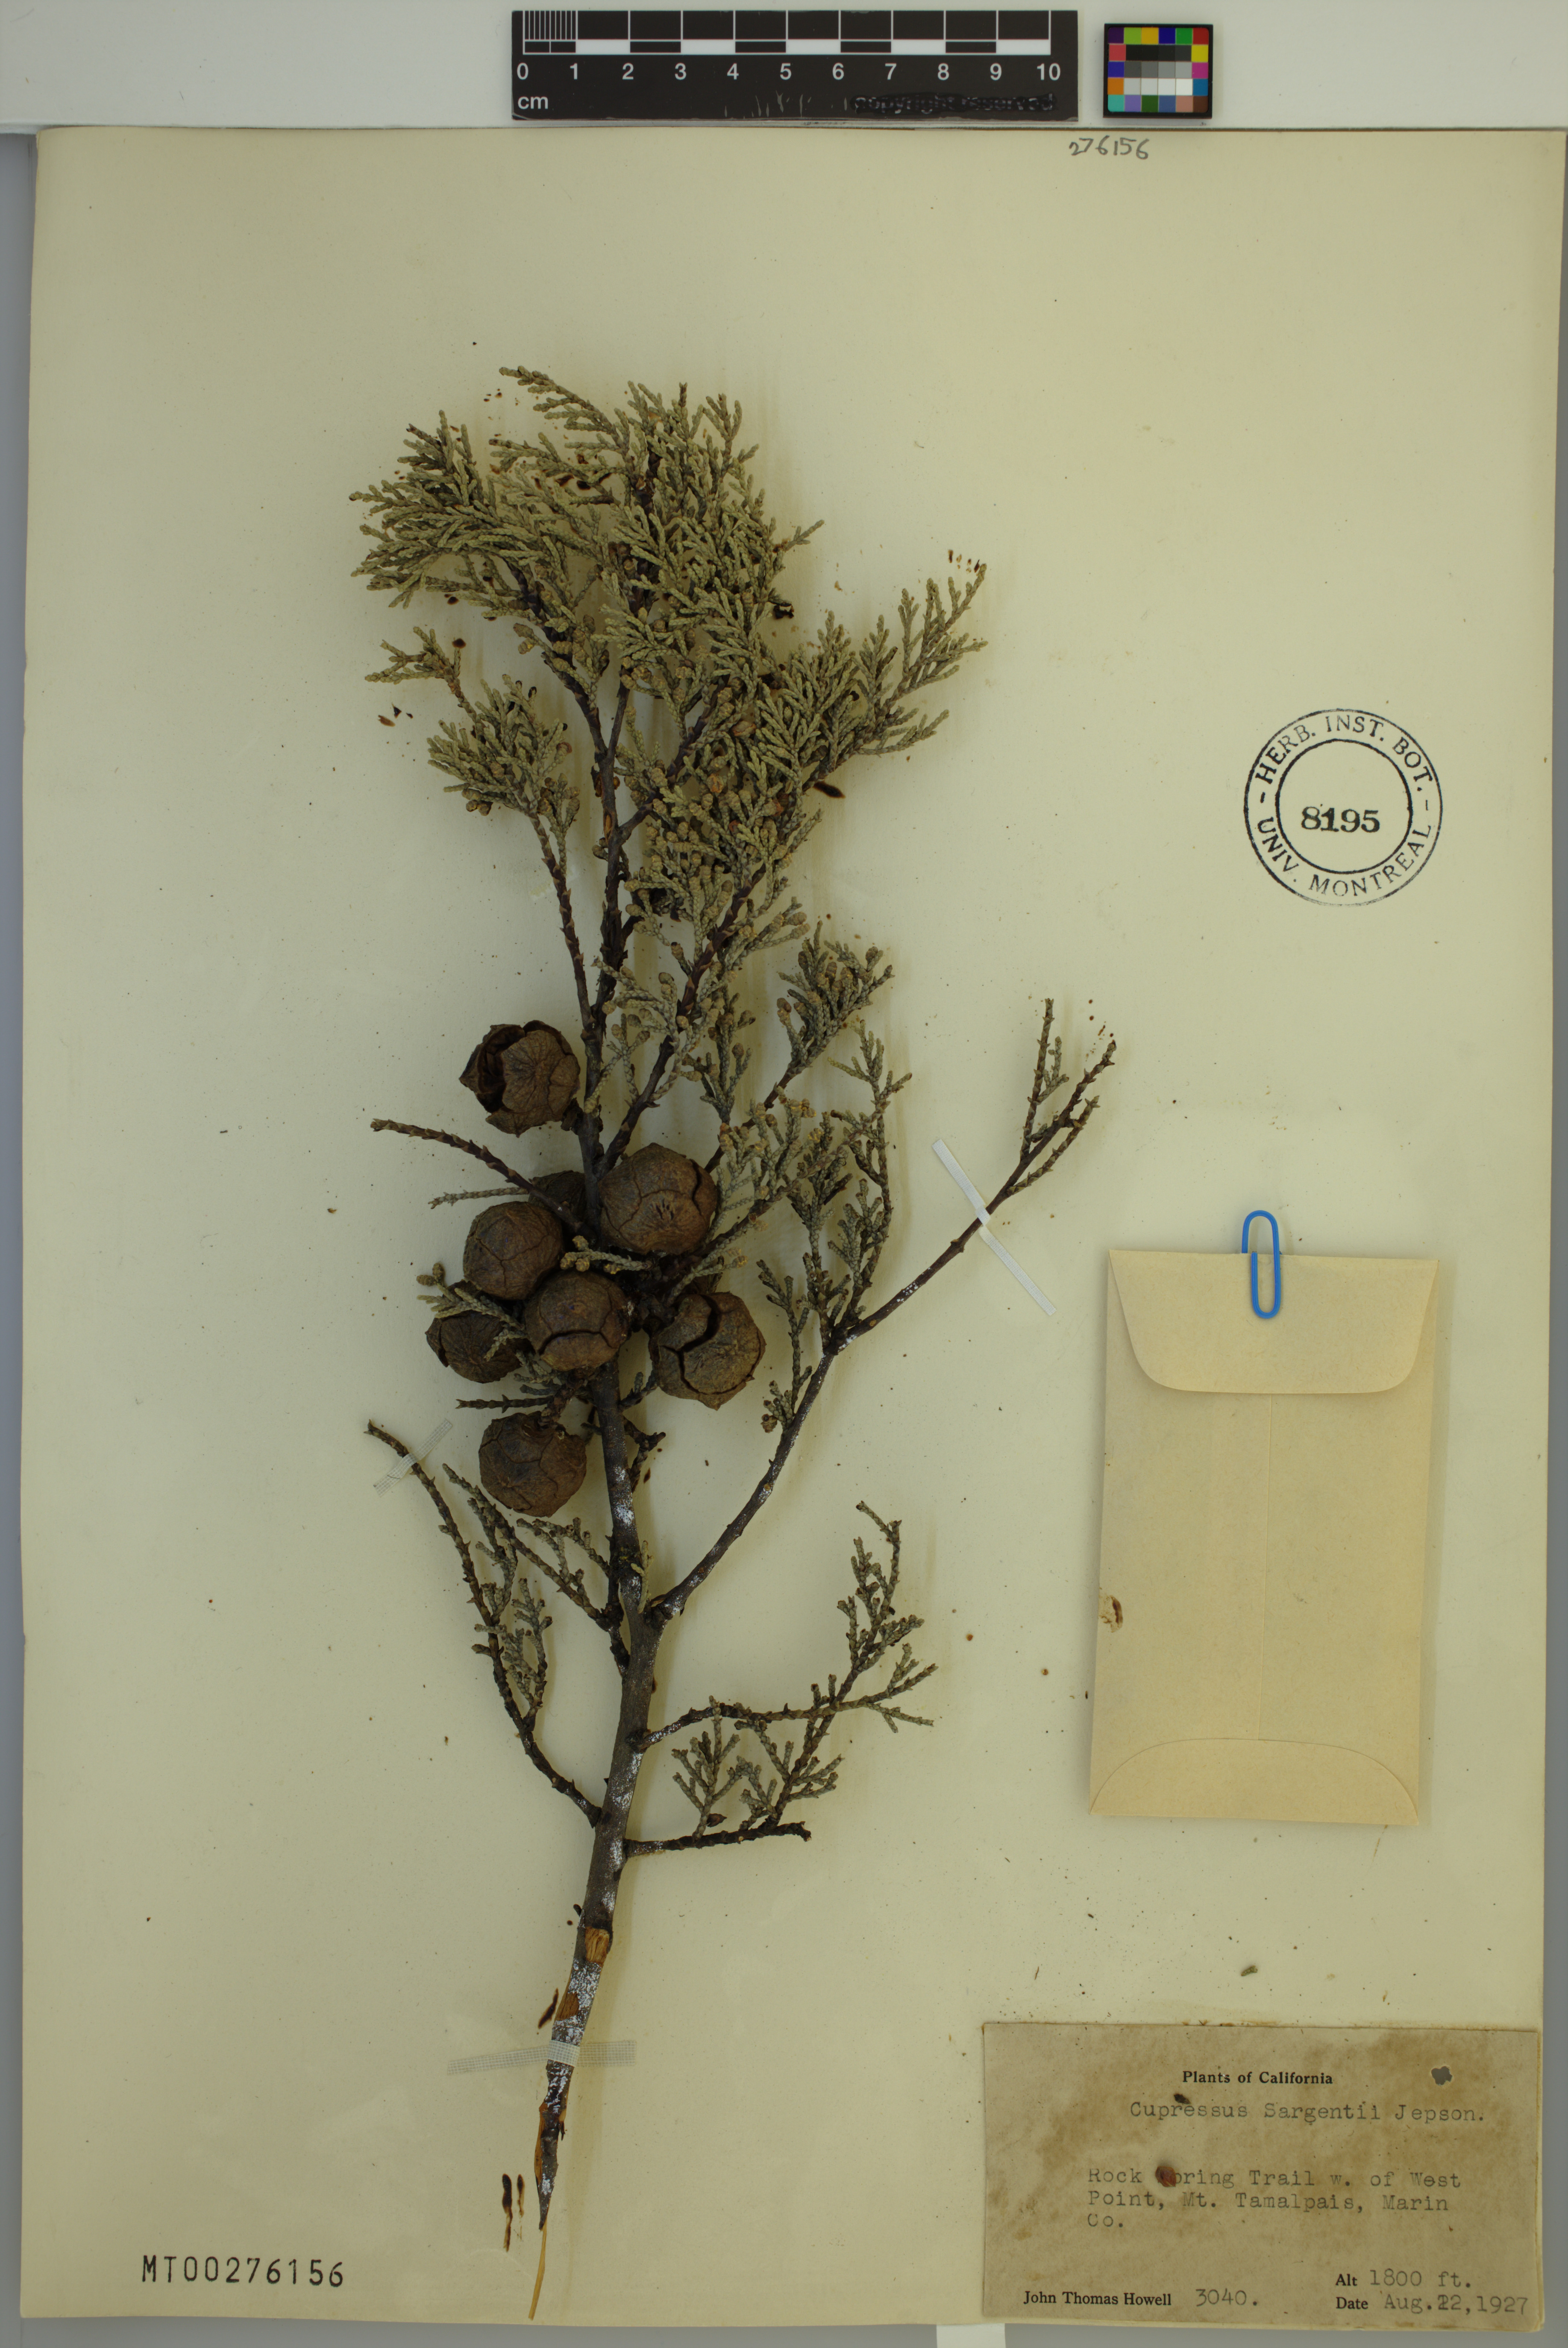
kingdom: Plantae
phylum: Tracheophyta
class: Pinopsida
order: Pinales
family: Cupressaceae
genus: Cupressus
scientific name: Cupressus sargentii
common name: Sargent cypress
